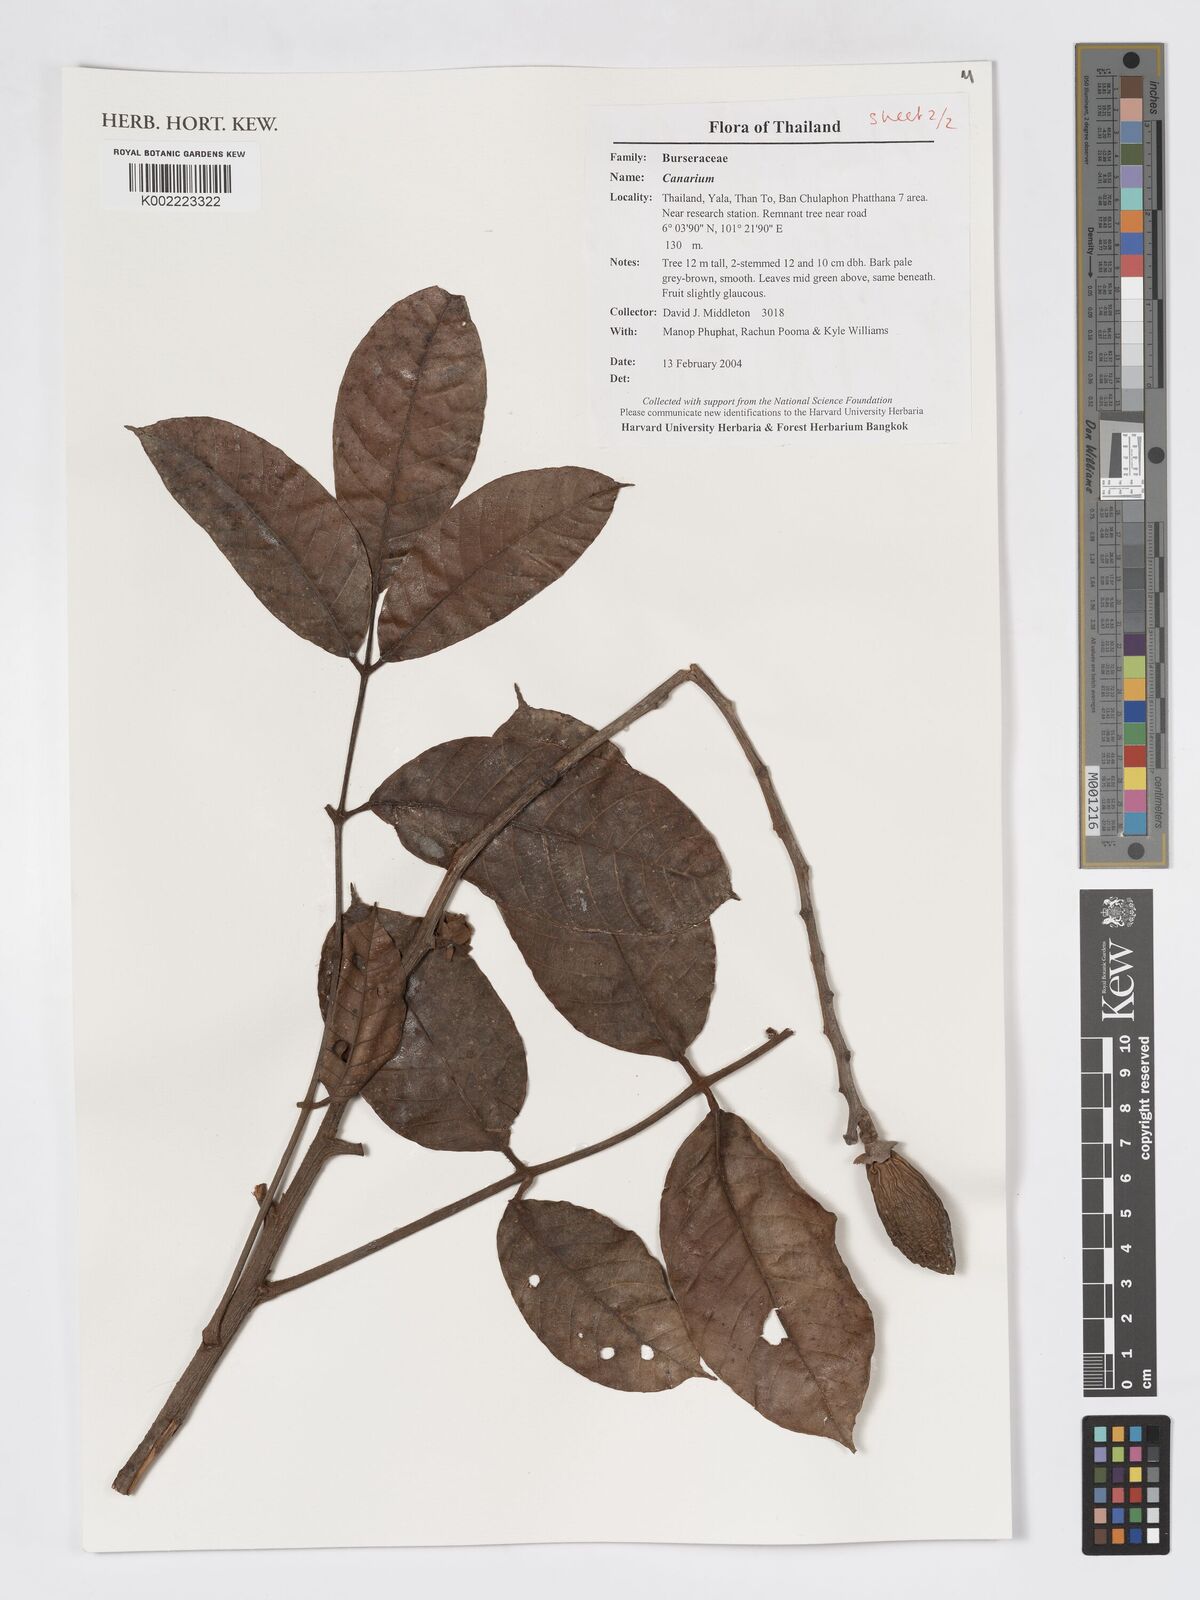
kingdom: Plantae
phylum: Tracheophyta
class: Magnoliopsida
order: Sapindales
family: Burseraceae
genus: Canarium
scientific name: Canarium
